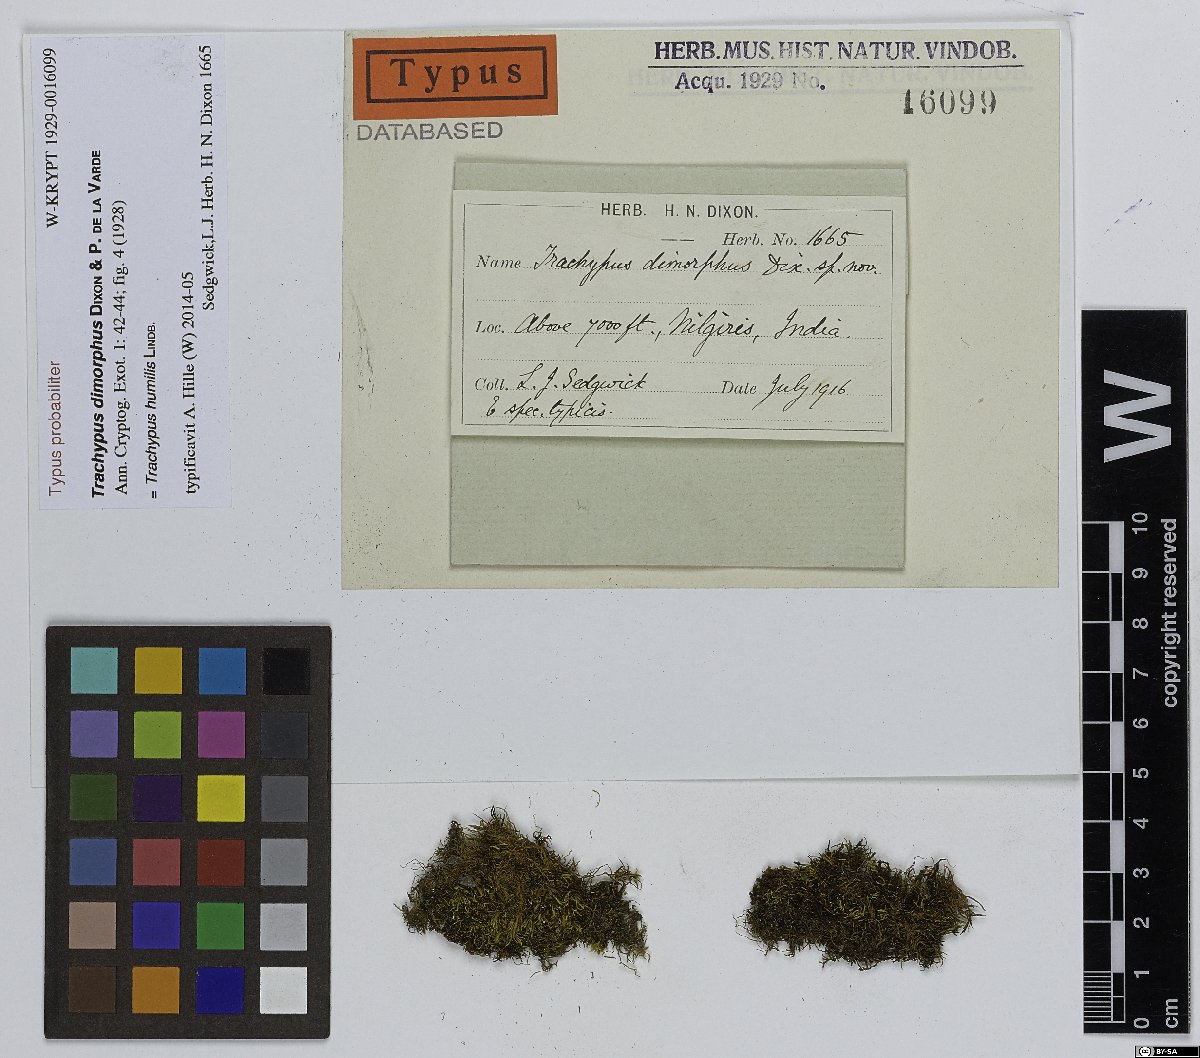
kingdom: Plantae
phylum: Bryophyta
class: Bryopsida
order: Hypnales
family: Meteoriaceae
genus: Trachypus
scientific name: Trachypus humilis
